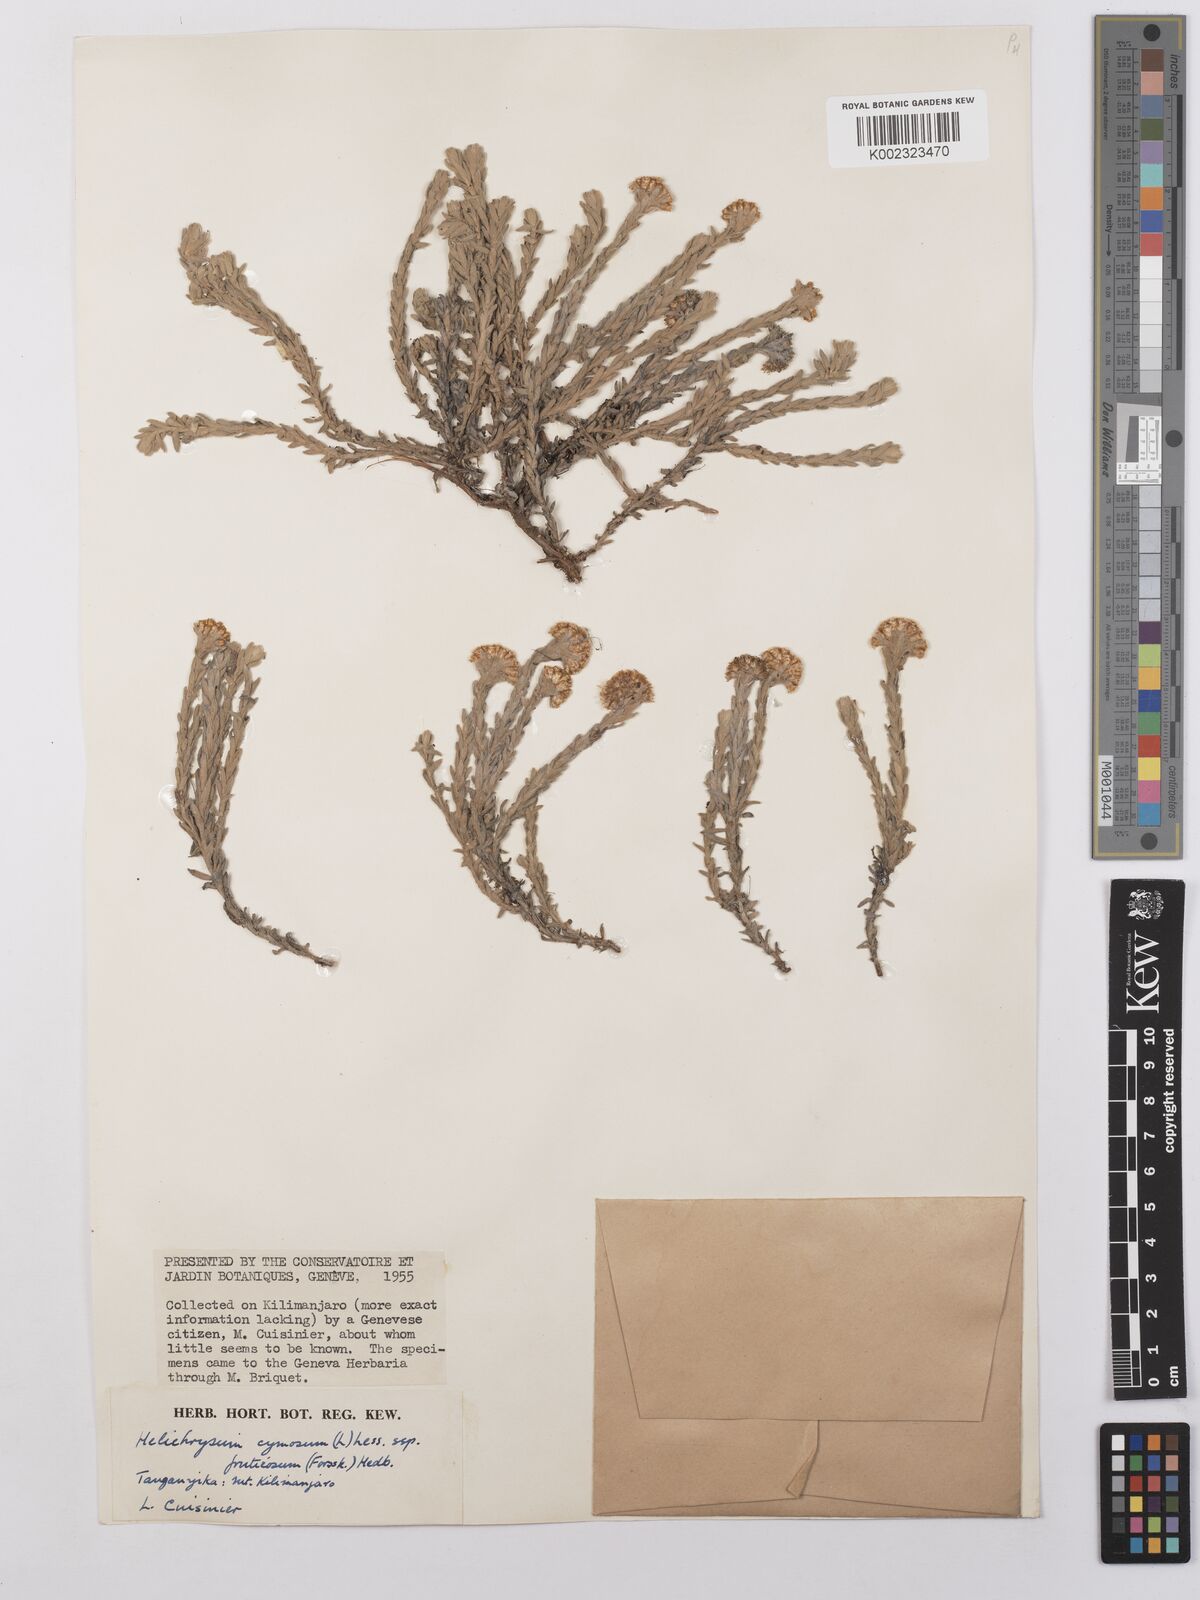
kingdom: Plantae
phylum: Tracheophyta
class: Magnoliopsida
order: Asterales
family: Asteraceae
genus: Helichrysum
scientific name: Helichrysum forskahlii
